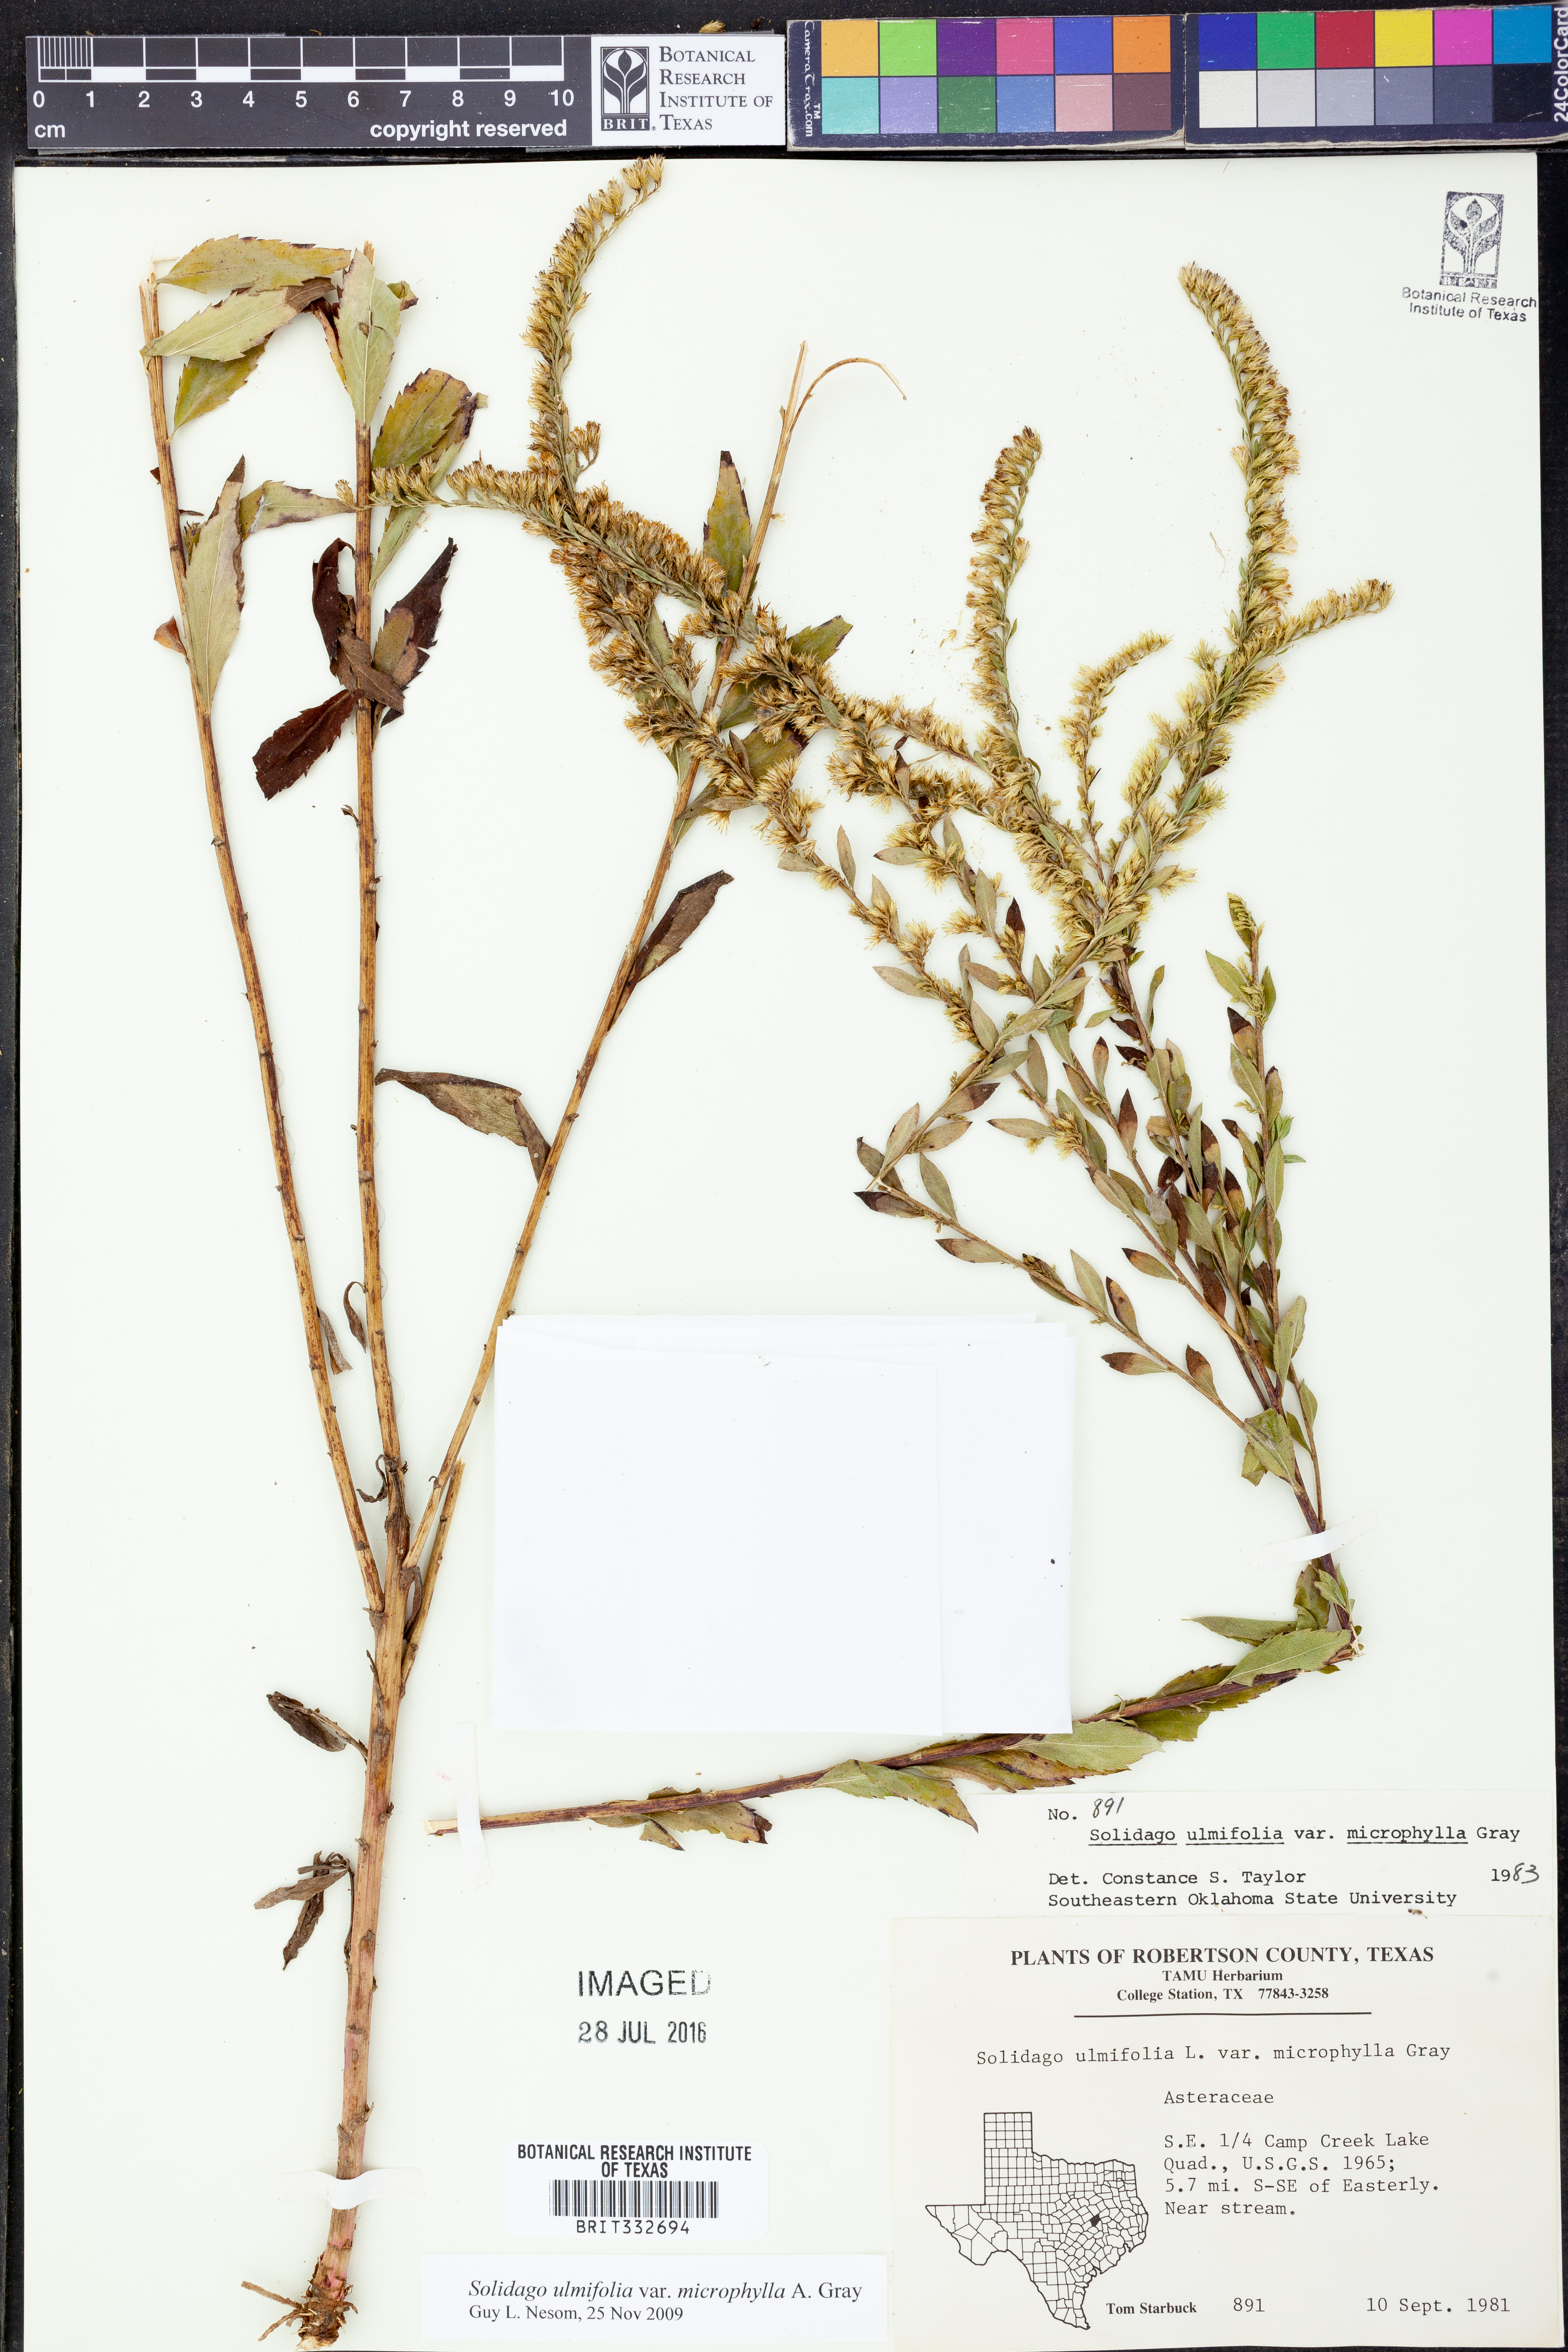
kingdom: Plantae
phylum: Tracheophyta
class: Magnoliopsida
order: Asterales
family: Asteraceae
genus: Solidago
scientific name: Solidago delicatula
